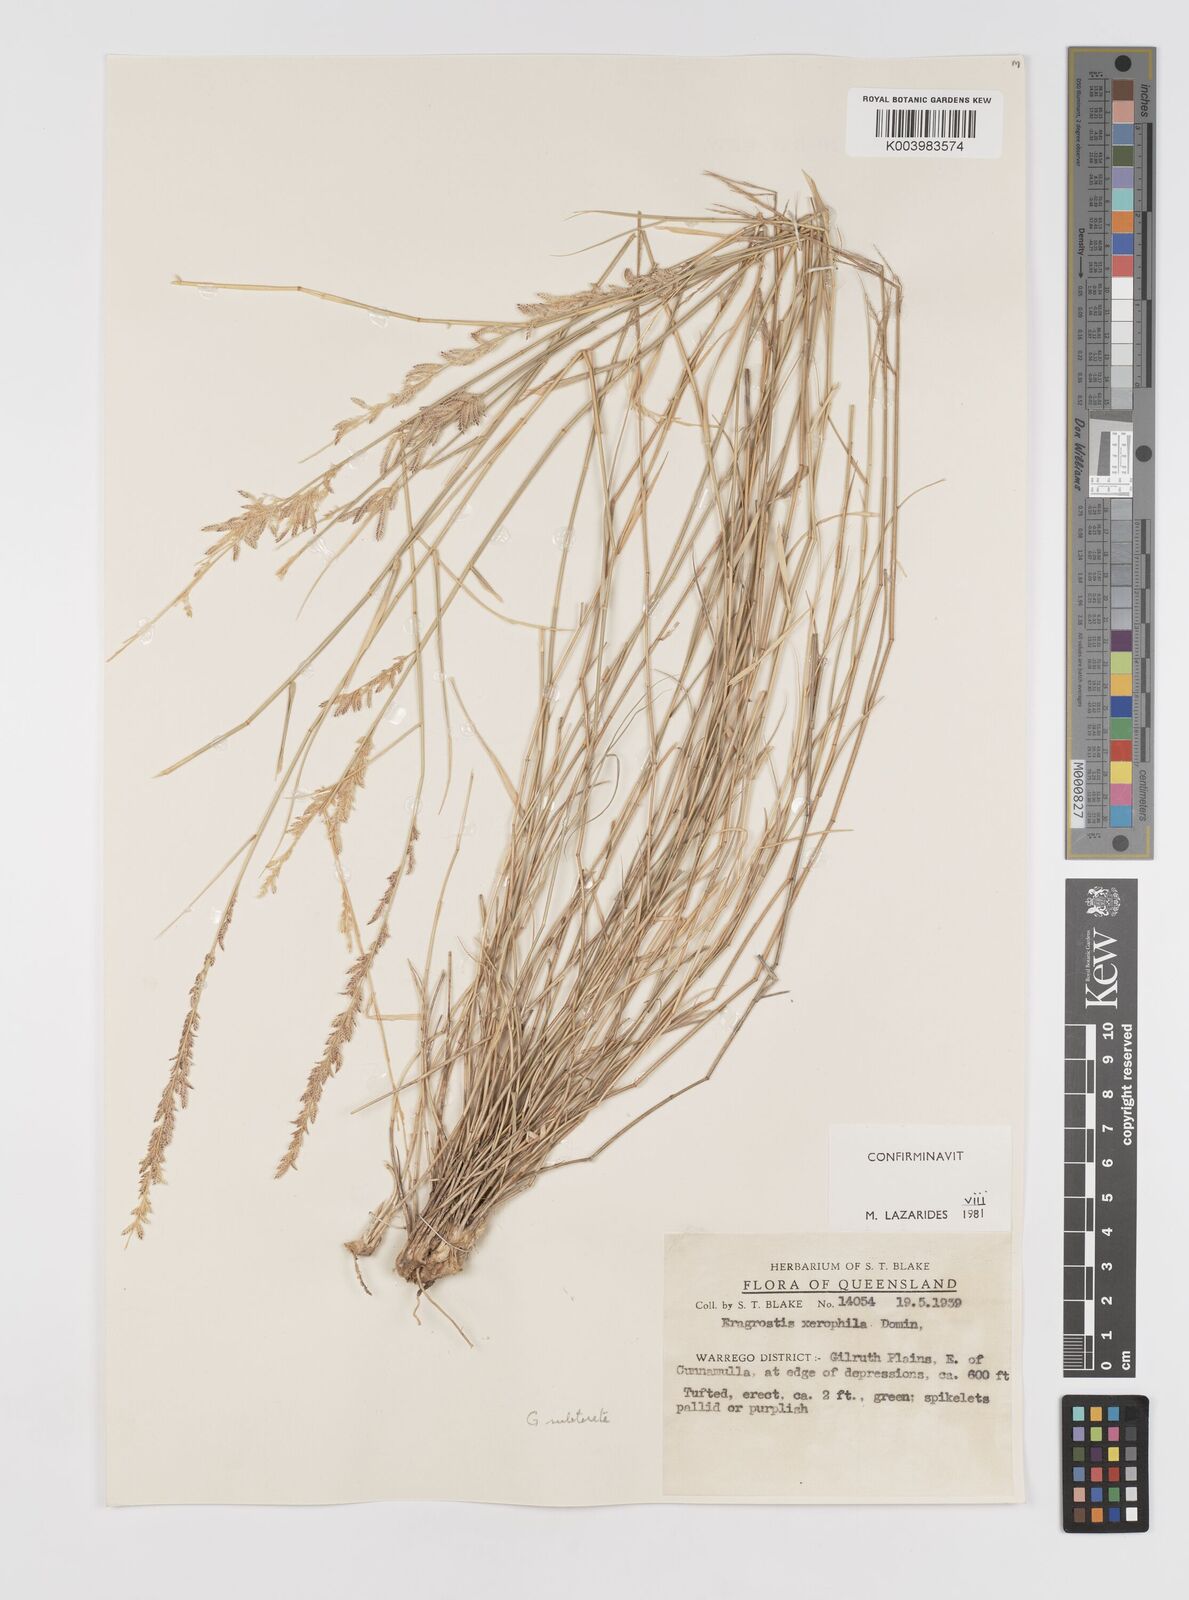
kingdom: Plantae
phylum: Tracheophyta
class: Liliopsida
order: Poales
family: Poaceae
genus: Eragrostis
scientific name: Eragrostis xerophila
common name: Wire wandarrie grass
